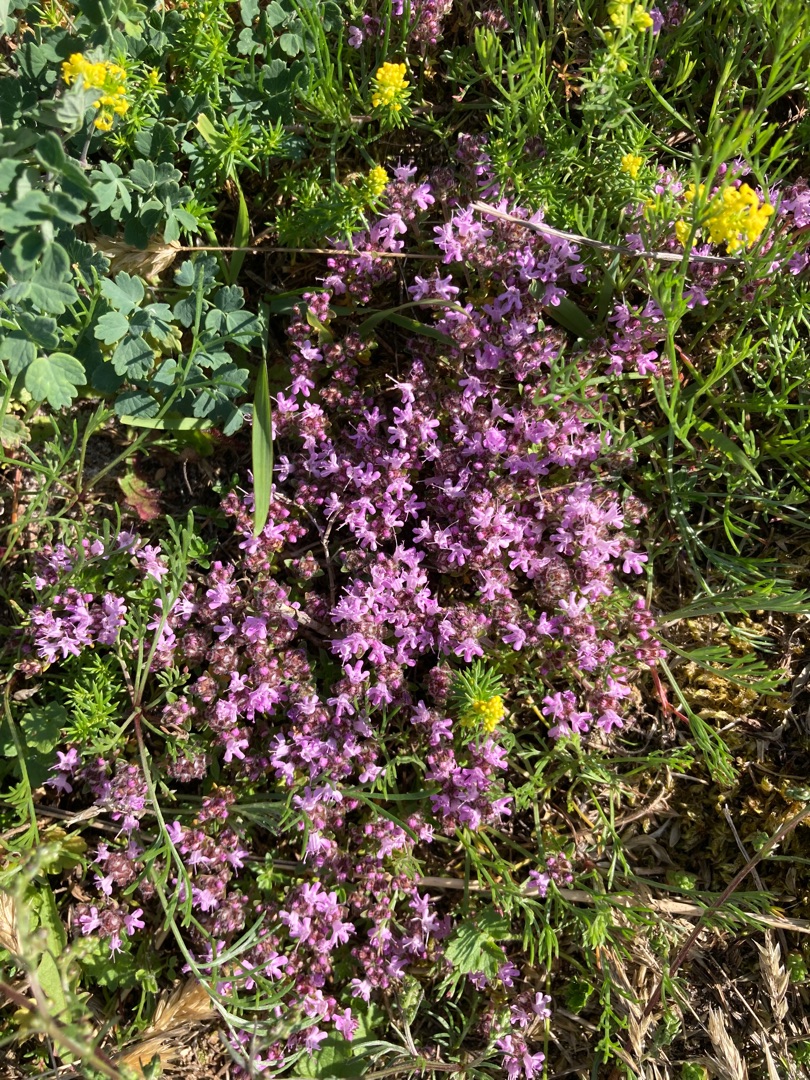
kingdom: Plantae
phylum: Tracheophyta
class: Magnoliopsida
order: Lamiales
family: Lamiaceae
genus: Thymus
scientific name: Thymus serpyllum
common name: Smalbladet timian
